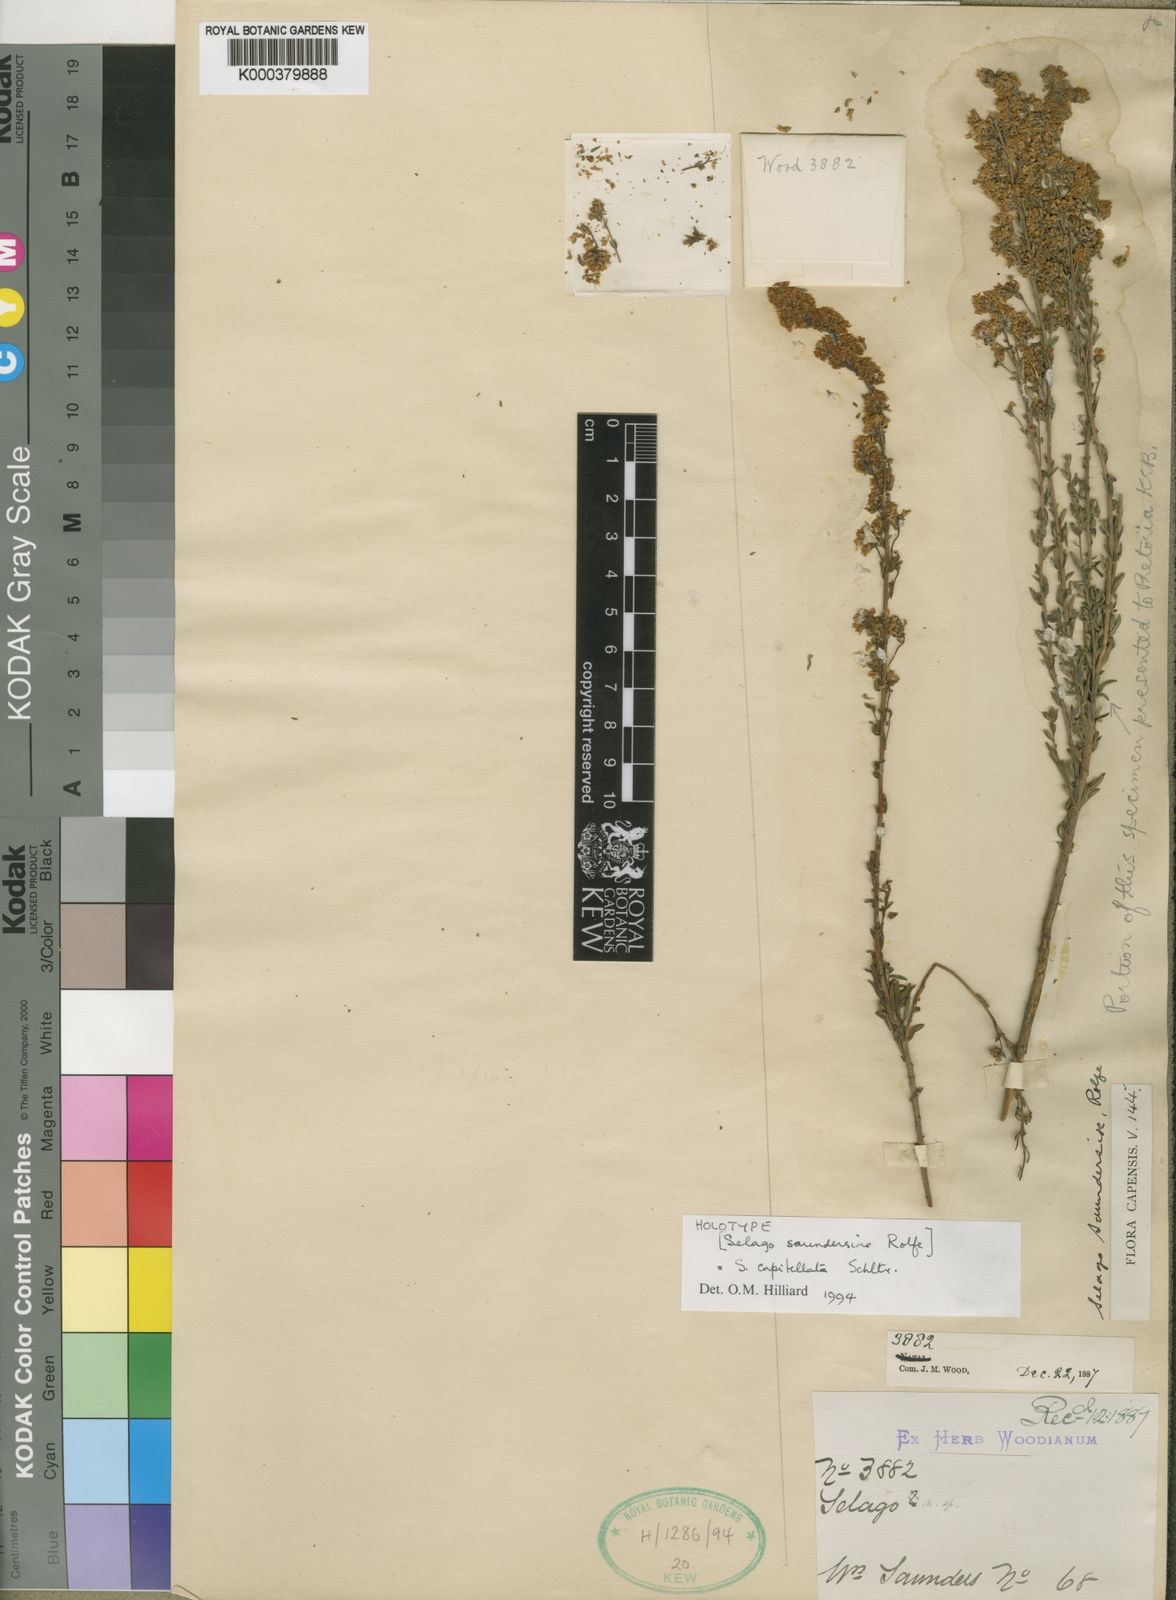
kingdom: Plantae
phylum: Tracheophyta
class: Magnoliopsida
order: Lamiales
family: Scrophulariaceae
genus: Selago
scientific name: Selago capitellata
